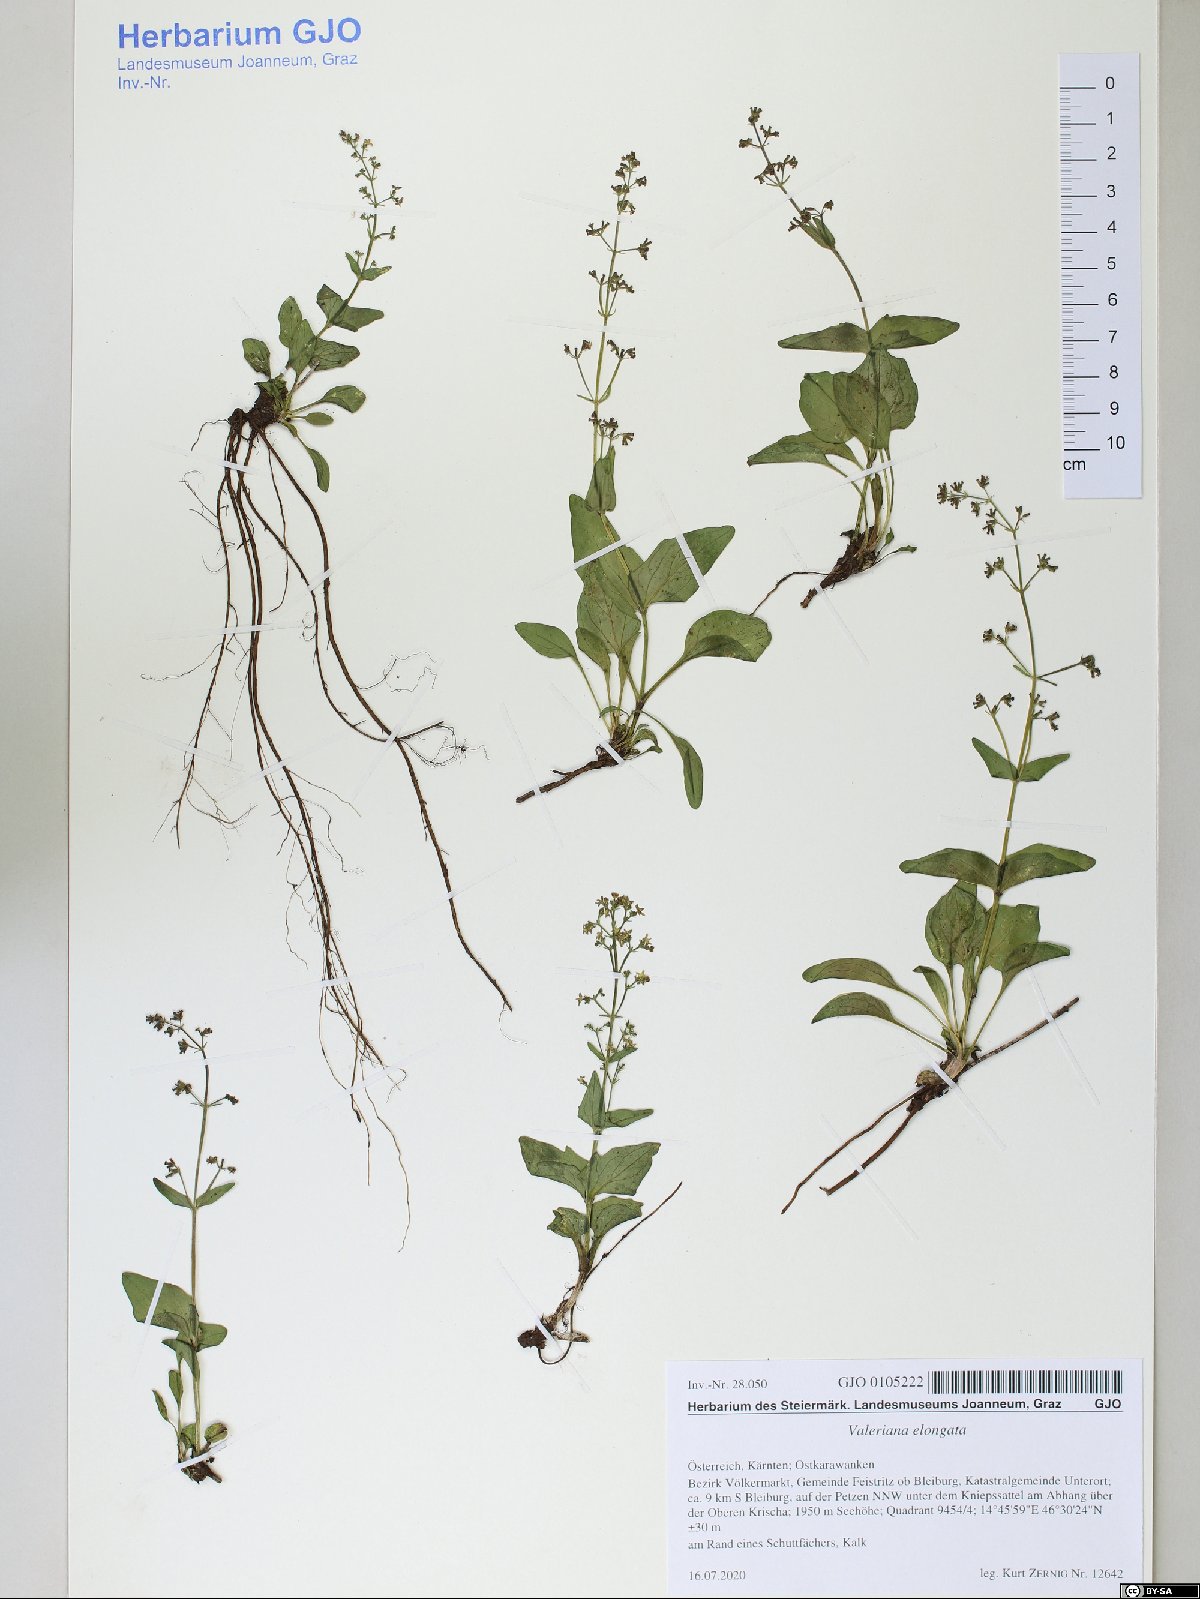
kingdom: Plantae
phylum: Tracheophyta
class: Magnoliopsida
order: Dipsacales
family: Caprifoliaceae
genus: Valeriana
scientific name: Valeriana elongata
